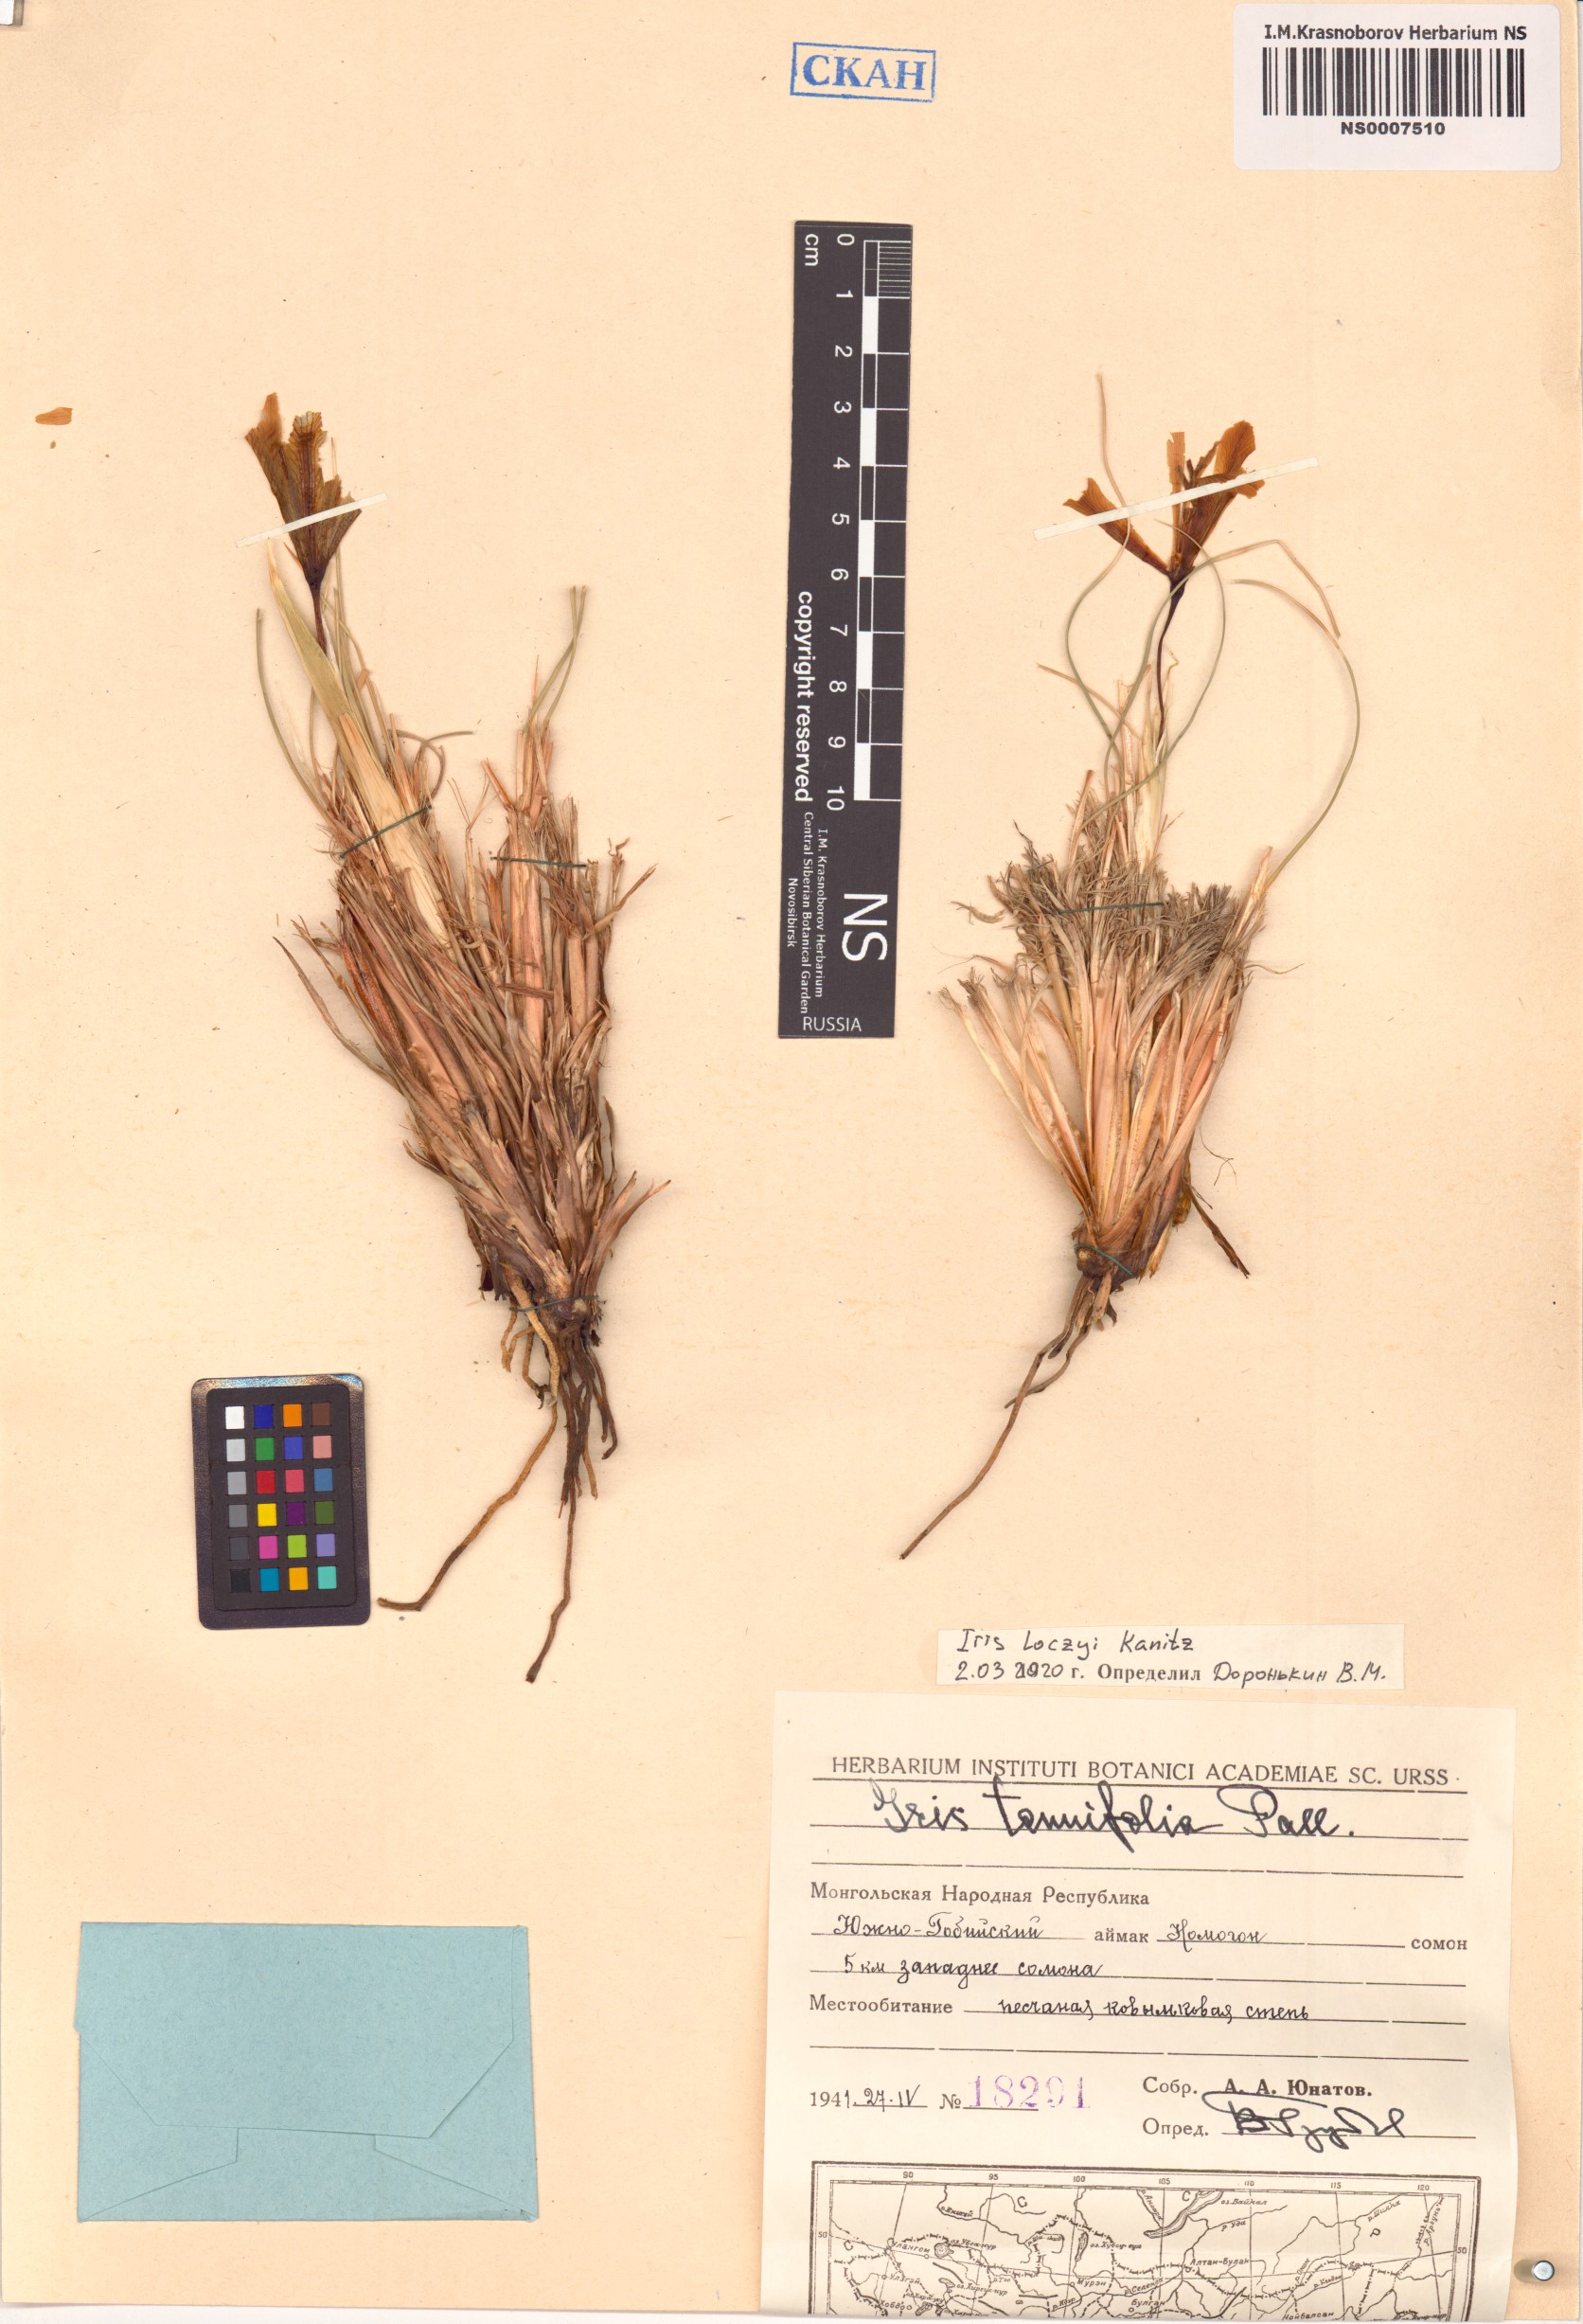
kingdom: Plantae
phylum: Tracheophyta
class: Liliopsida
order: Asparagales
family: Iridaceae
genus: Iris
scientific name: Iris loczyi
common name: Tian shan mountain iris
